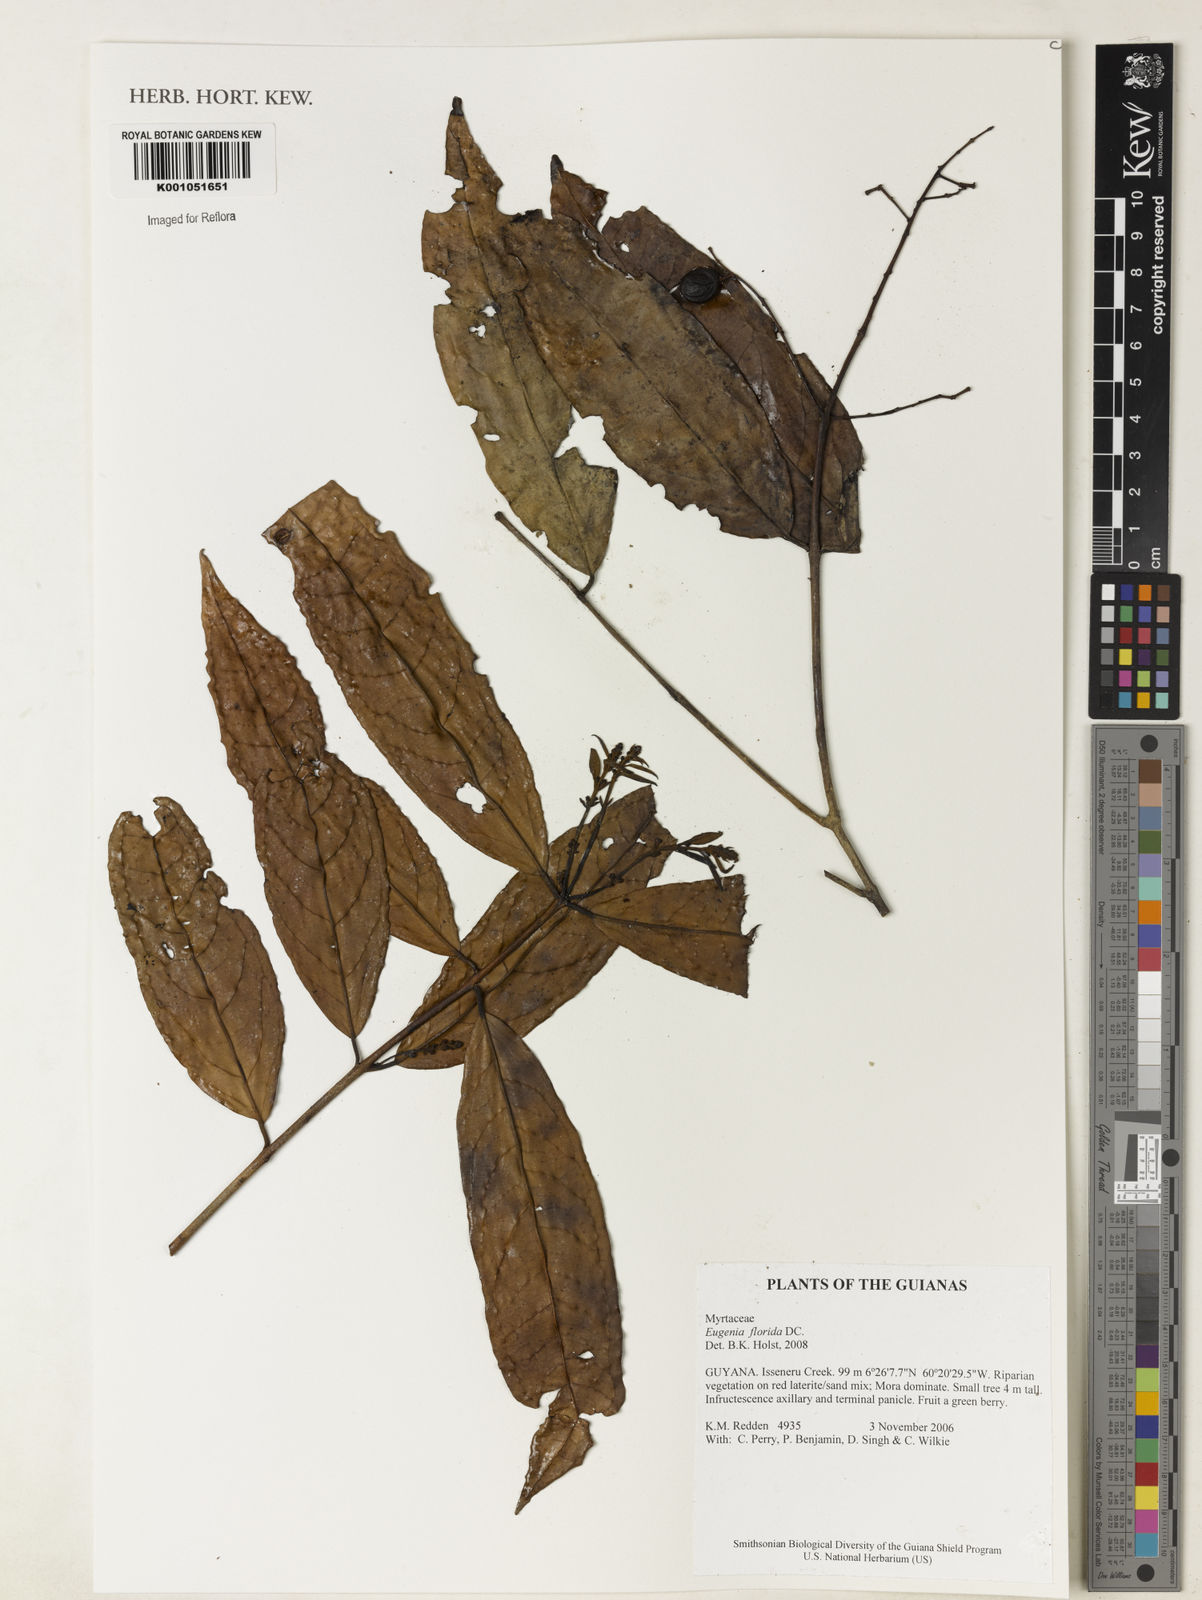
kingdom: Plantae
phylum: Tracheophyta
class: Magnoliopsida
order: Myrtales
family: Myrtaceae
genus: Eugenia
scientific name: Eugenia florida
